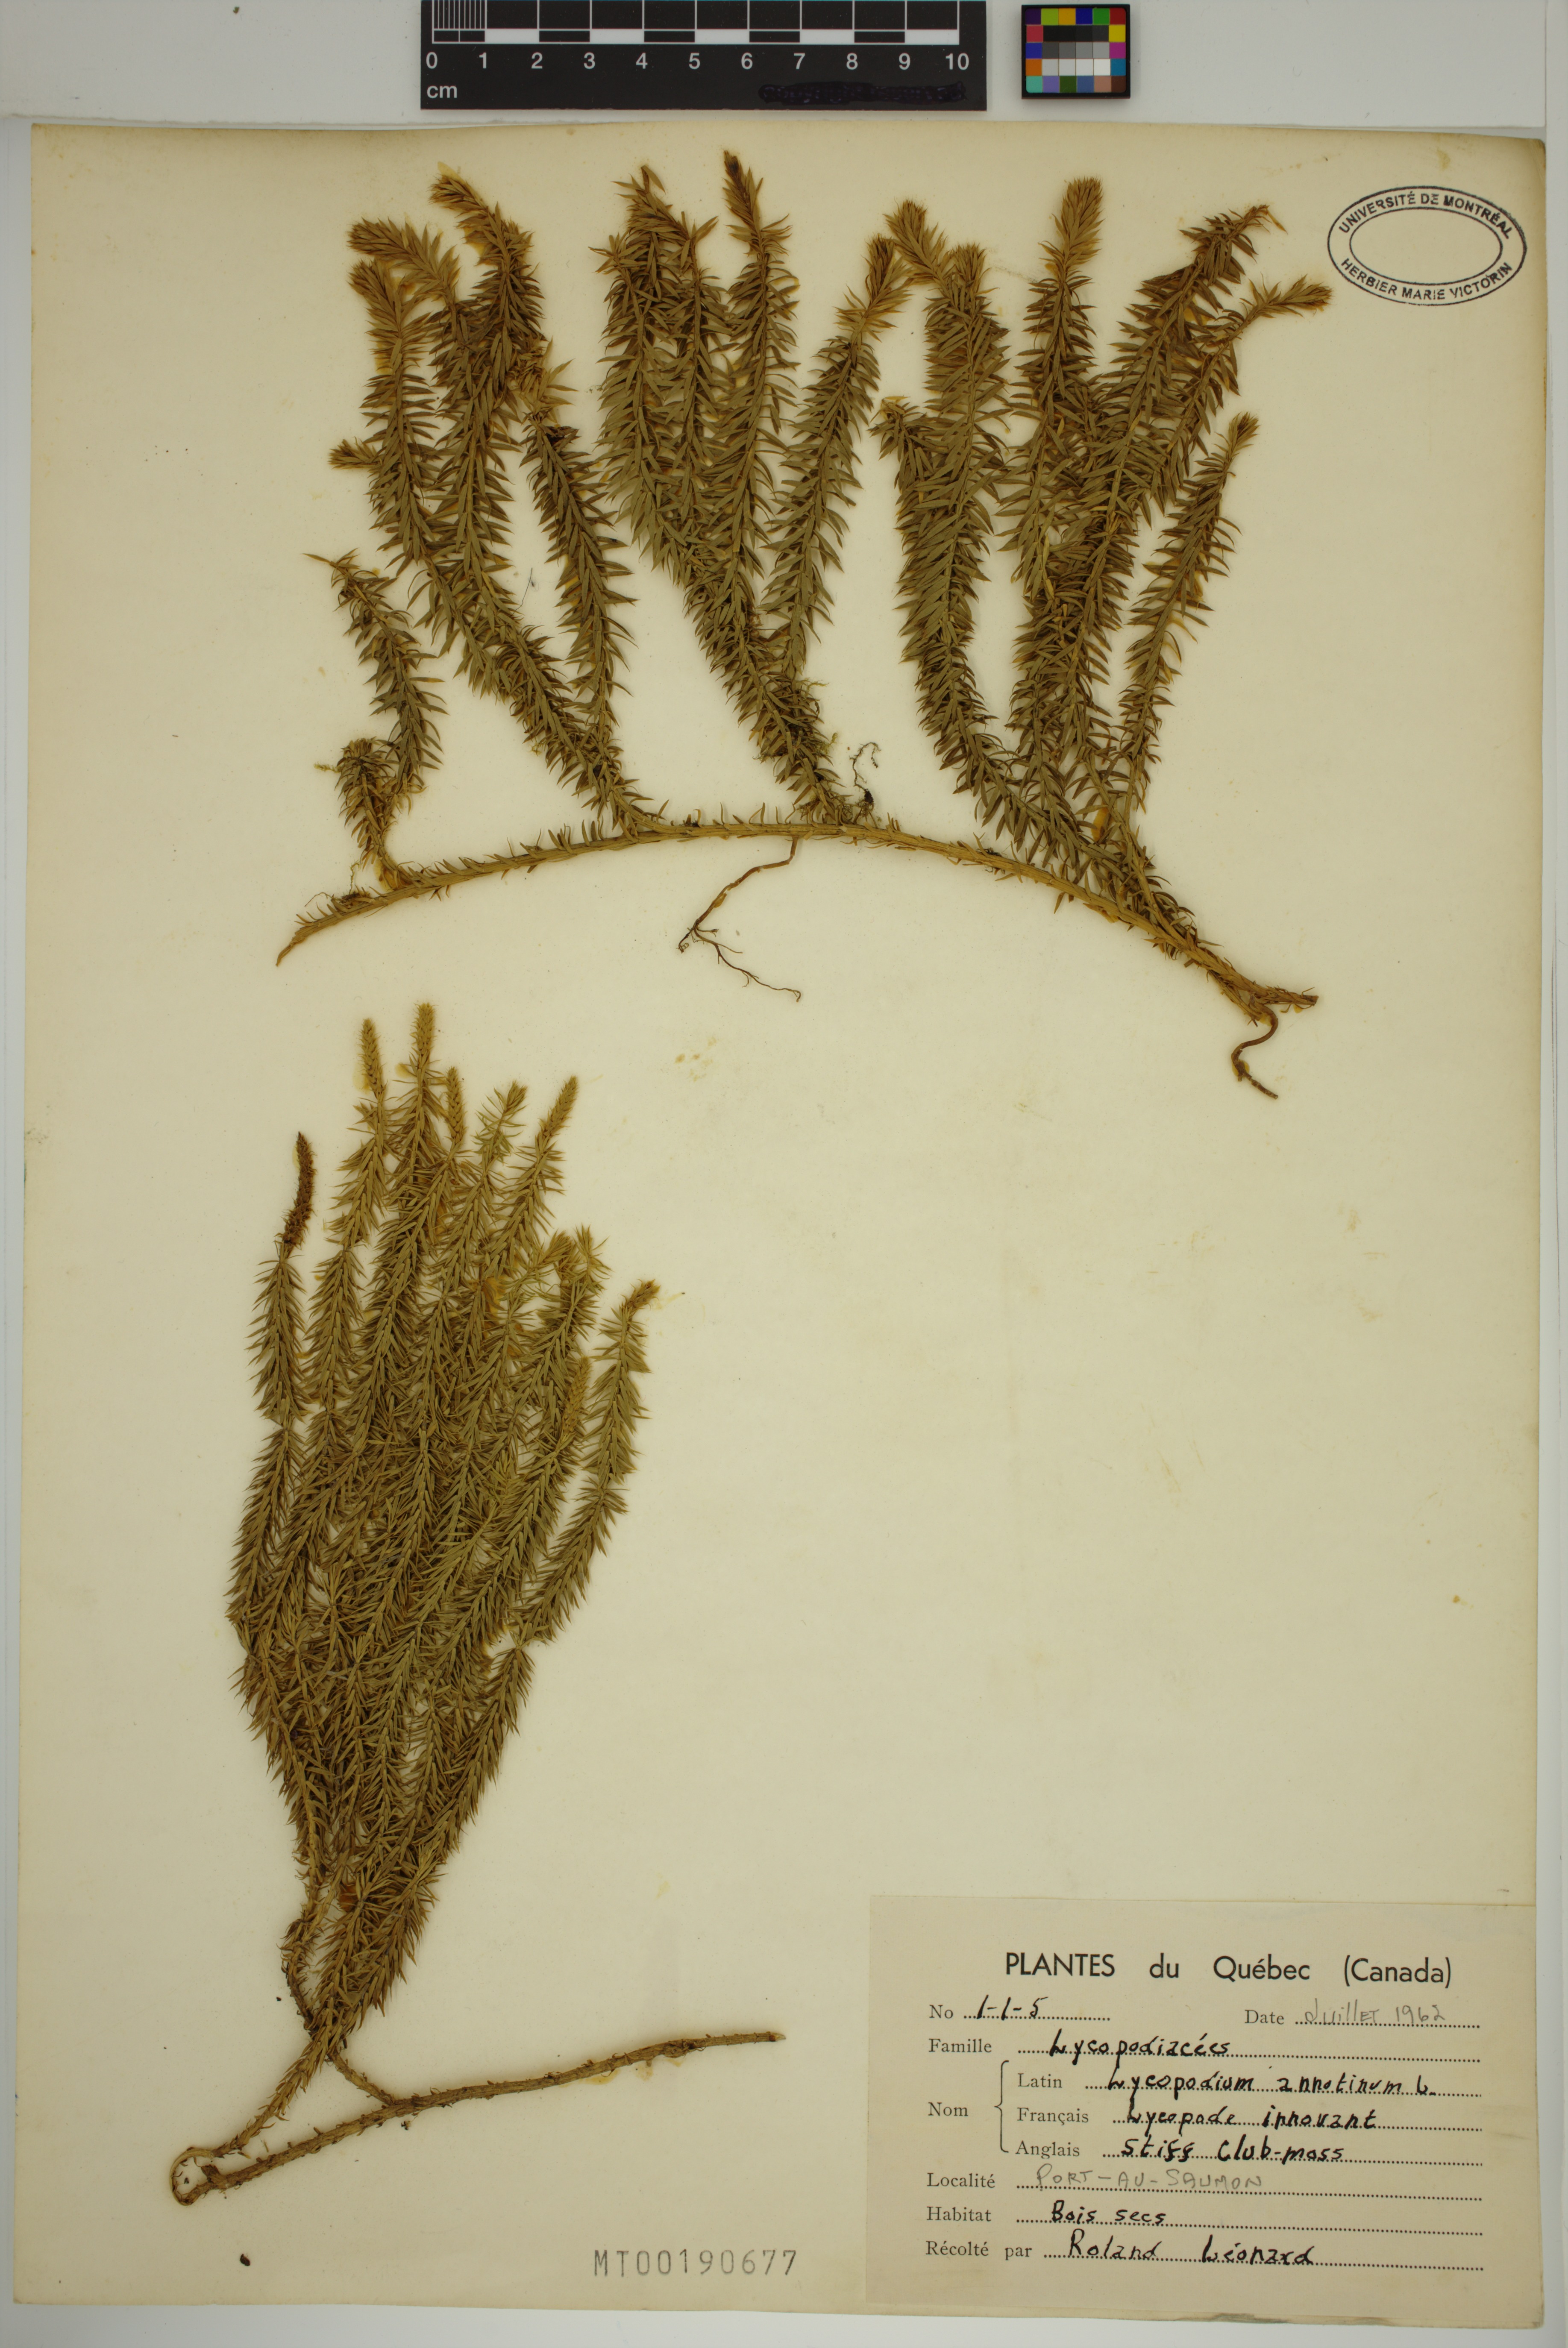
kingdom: Plantae
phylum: Tracheophyta
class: Lycopodiopsida
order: Lycopodiales
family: Lycopodiaceae
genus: Spinulum
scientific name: Spinulum annotinum
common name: Interrupted club-moss
